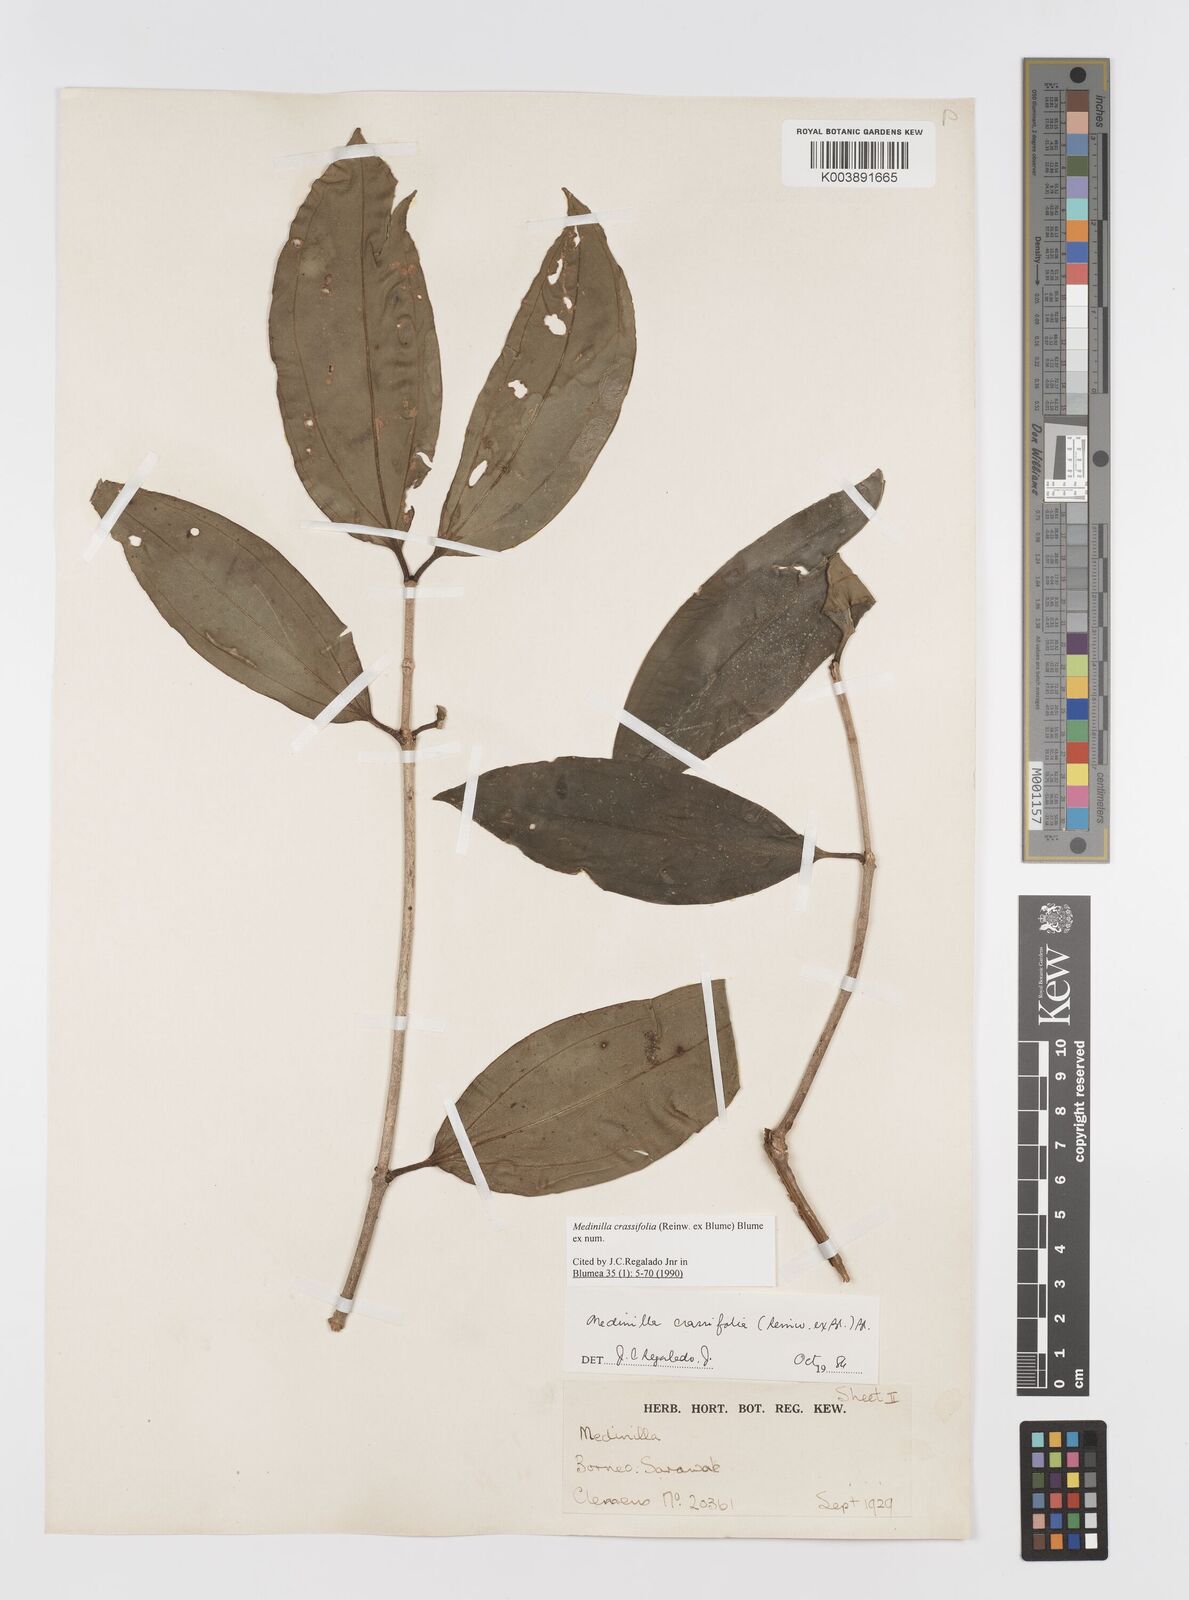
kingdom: Plantae
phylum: Tracheophyta
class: Magnoliopsida
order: Myrtales
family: Melastomataceae
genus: Medinilla
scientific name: Medinilla crassifolia
